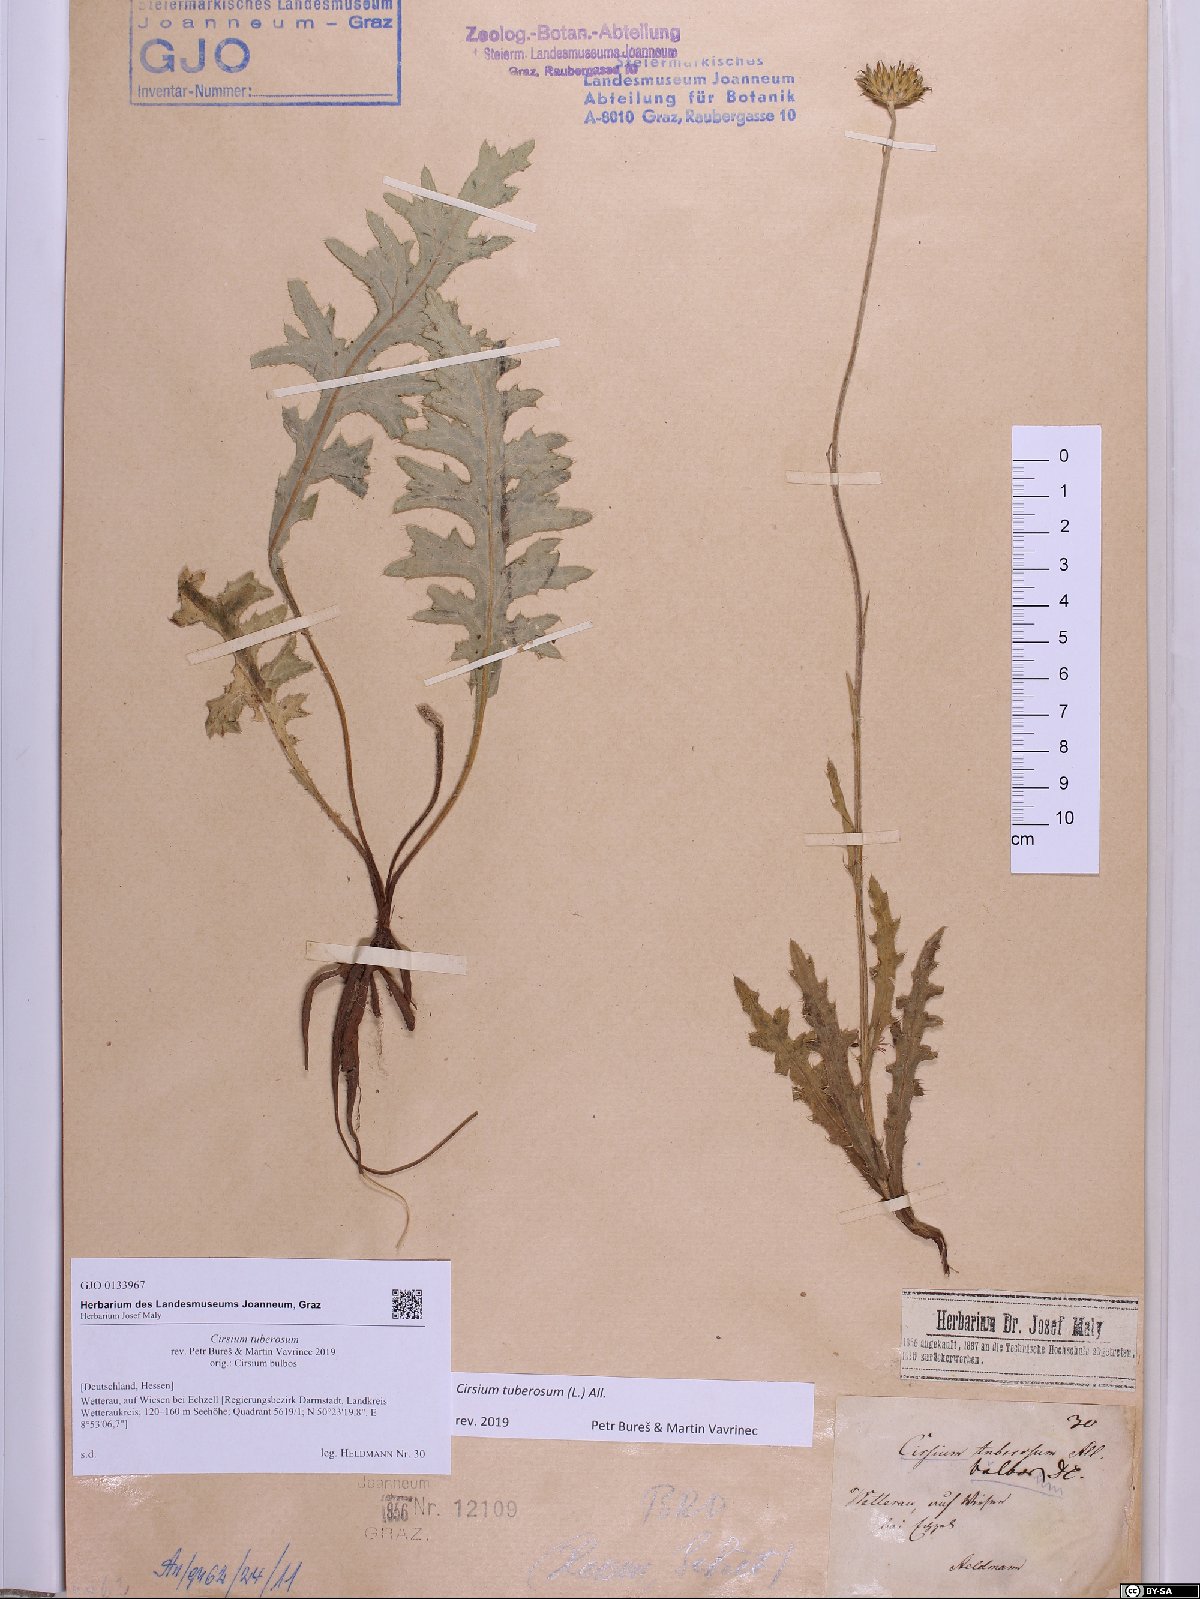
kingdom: Plantae
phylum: Tracheophyta
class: Magnoliopsida
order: Asterales
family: Asteraceae
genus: Cirsium
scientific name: Cirsium tuberosum
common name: Tuberous thistle
